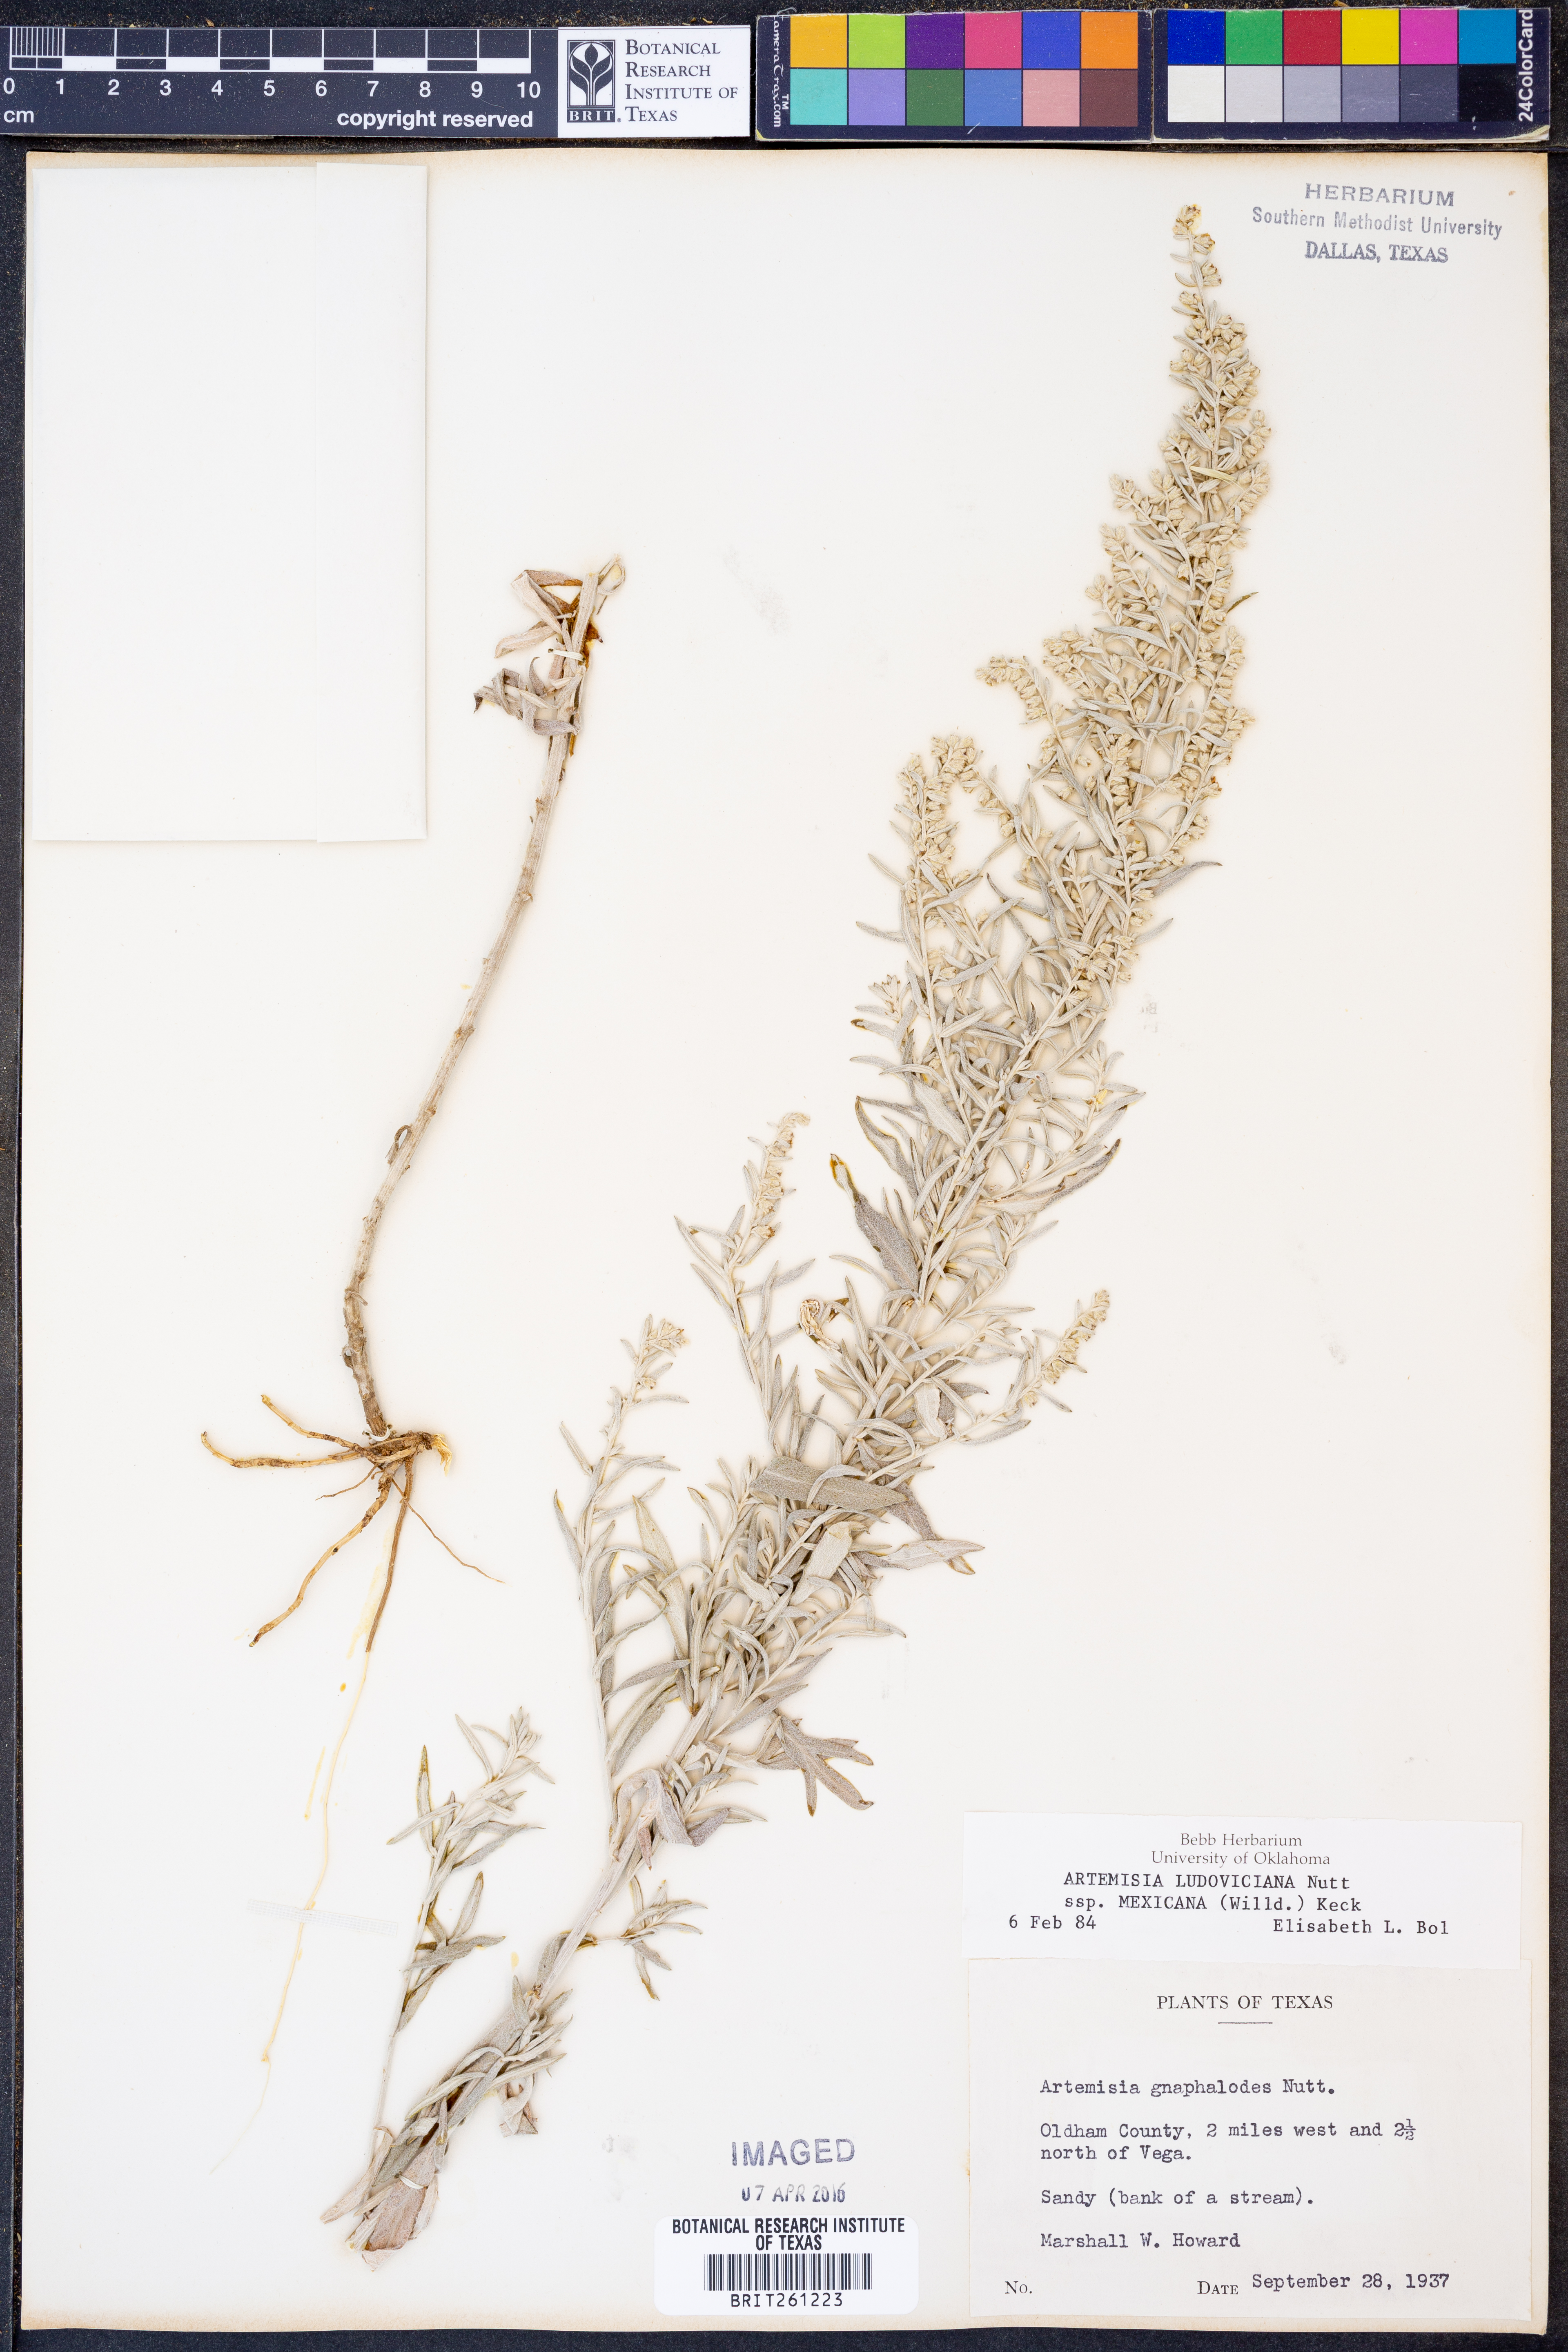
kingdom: Plantae
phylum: Tracheophyta
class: Magnoliopsida
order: Asterales
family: Asteraceae
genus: Artemisia
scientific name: Artemisia ludoviciana
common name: Western mugwort
